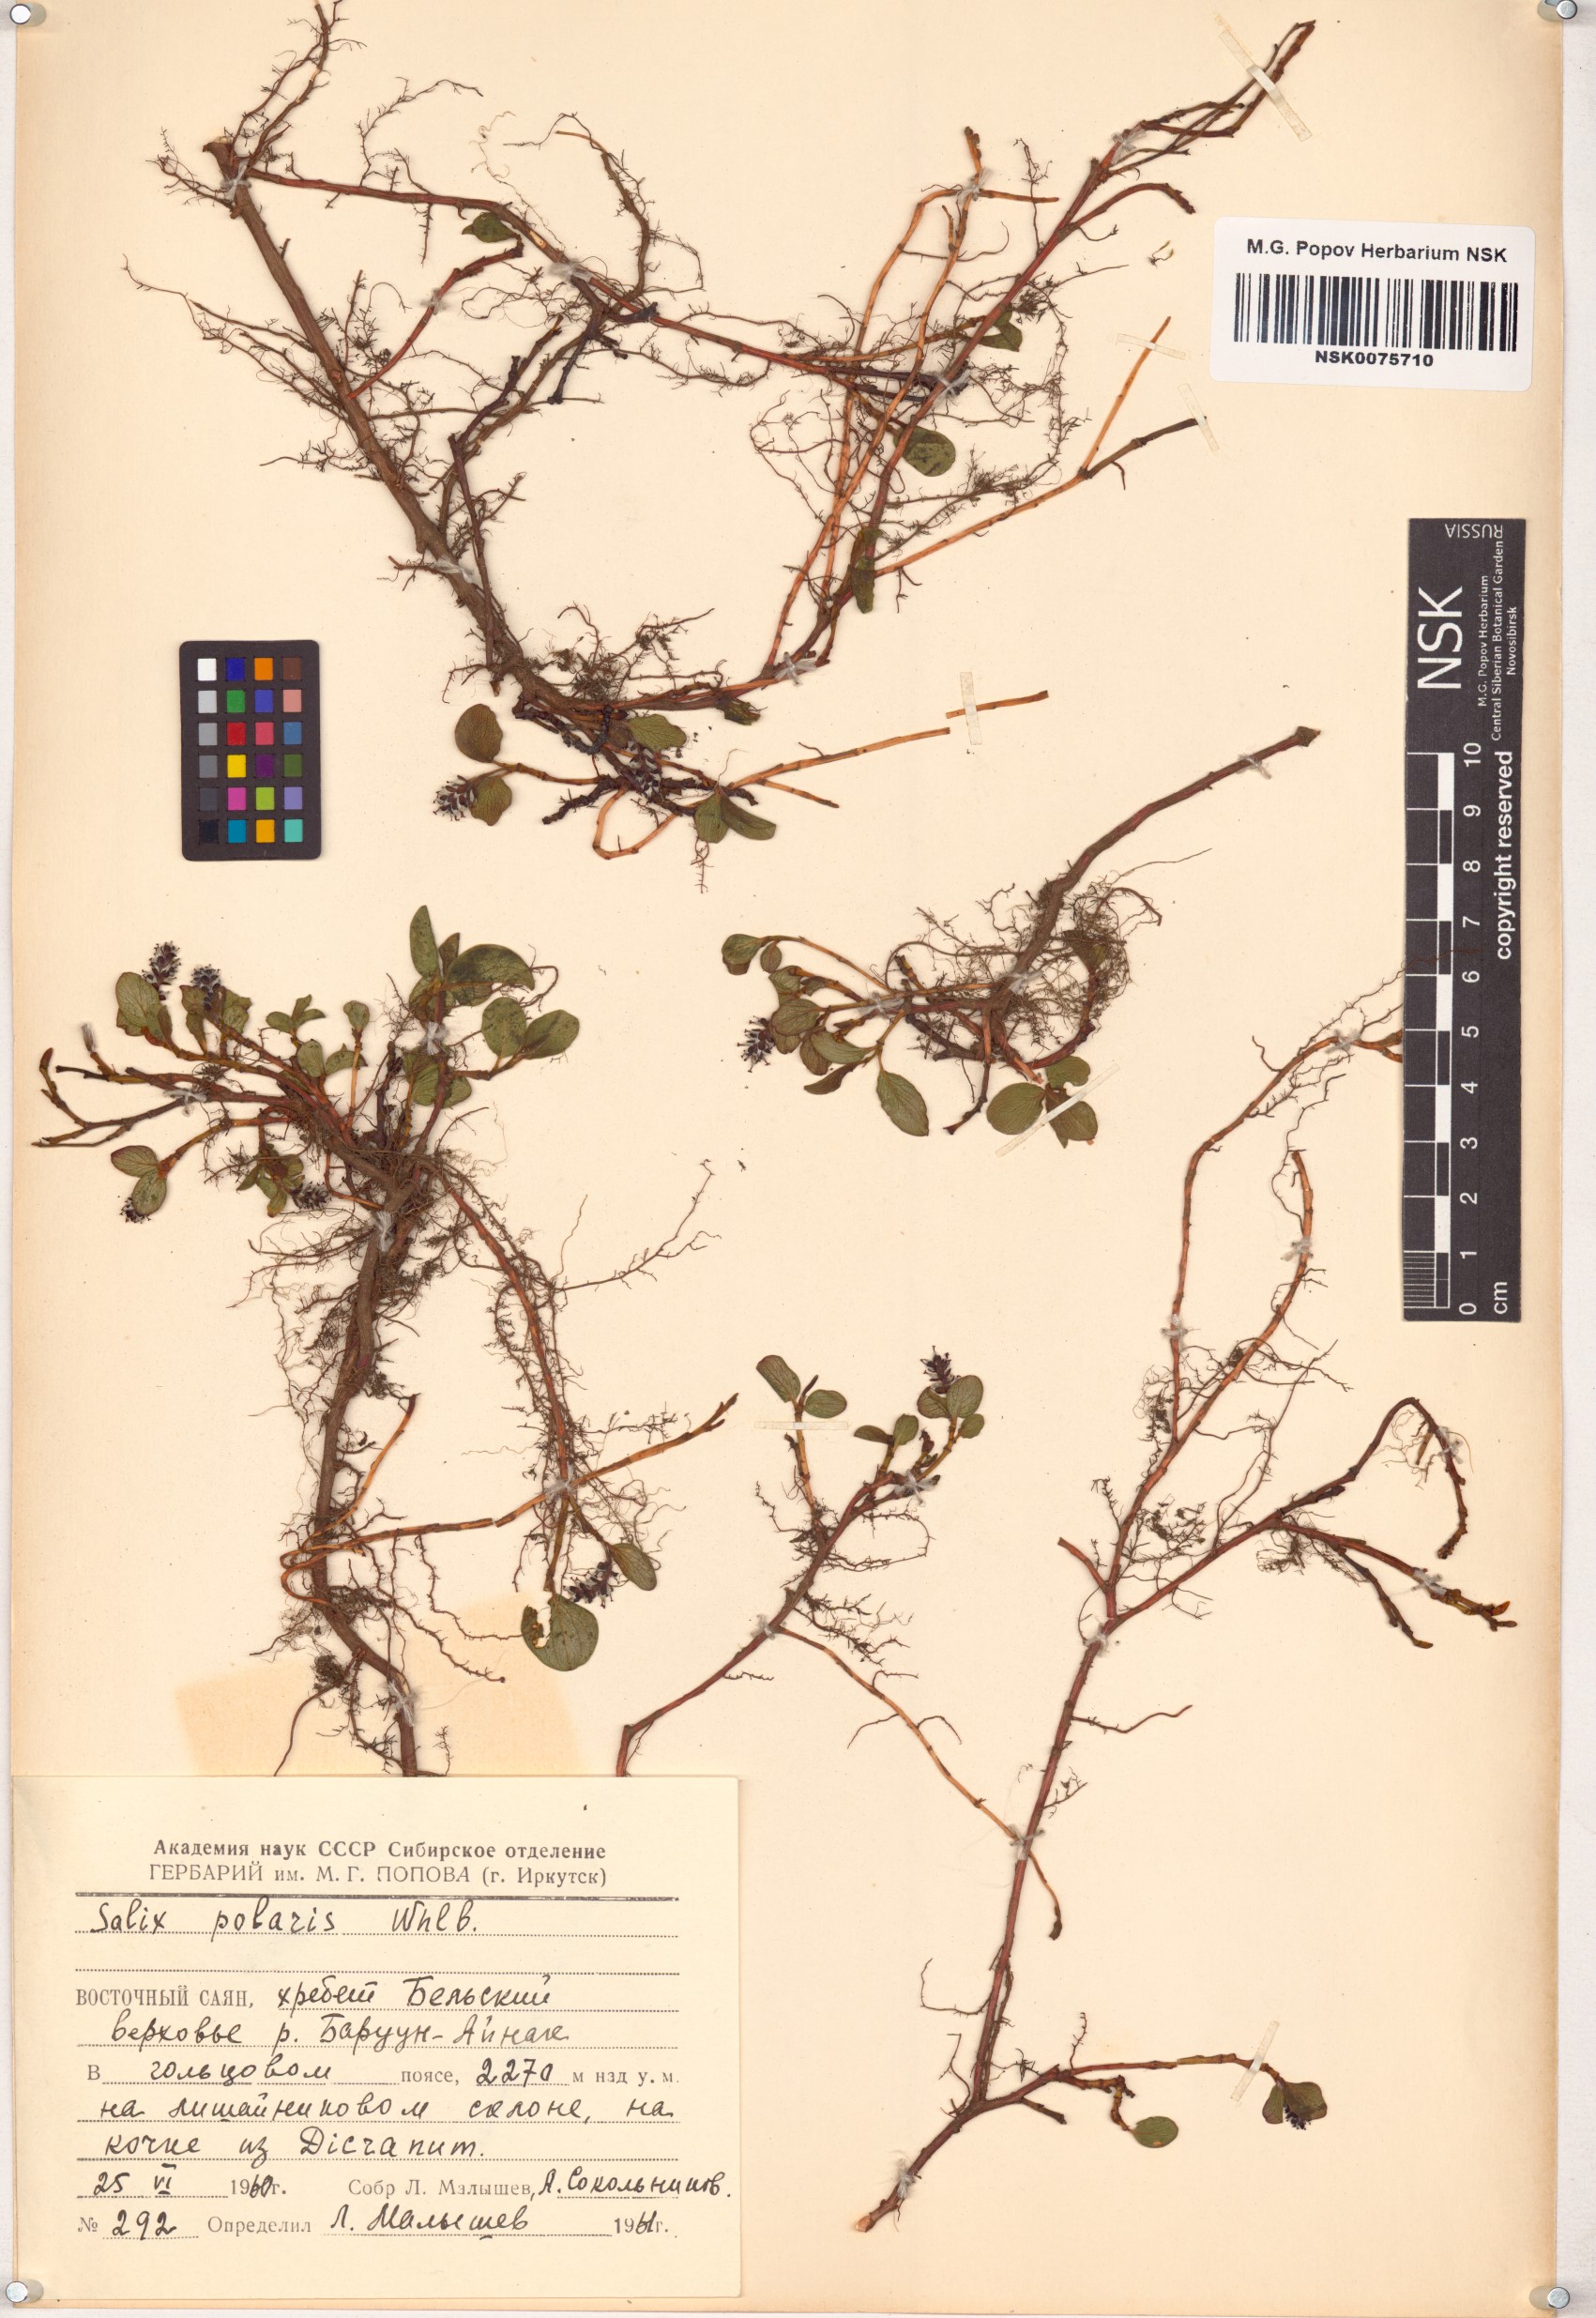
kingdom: Plantae
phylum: Tracheophyta
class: Magnoliopsida
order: Malpighiales
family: Salicaceae
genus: Salix
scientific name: Salix polaris
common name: Polar willow
